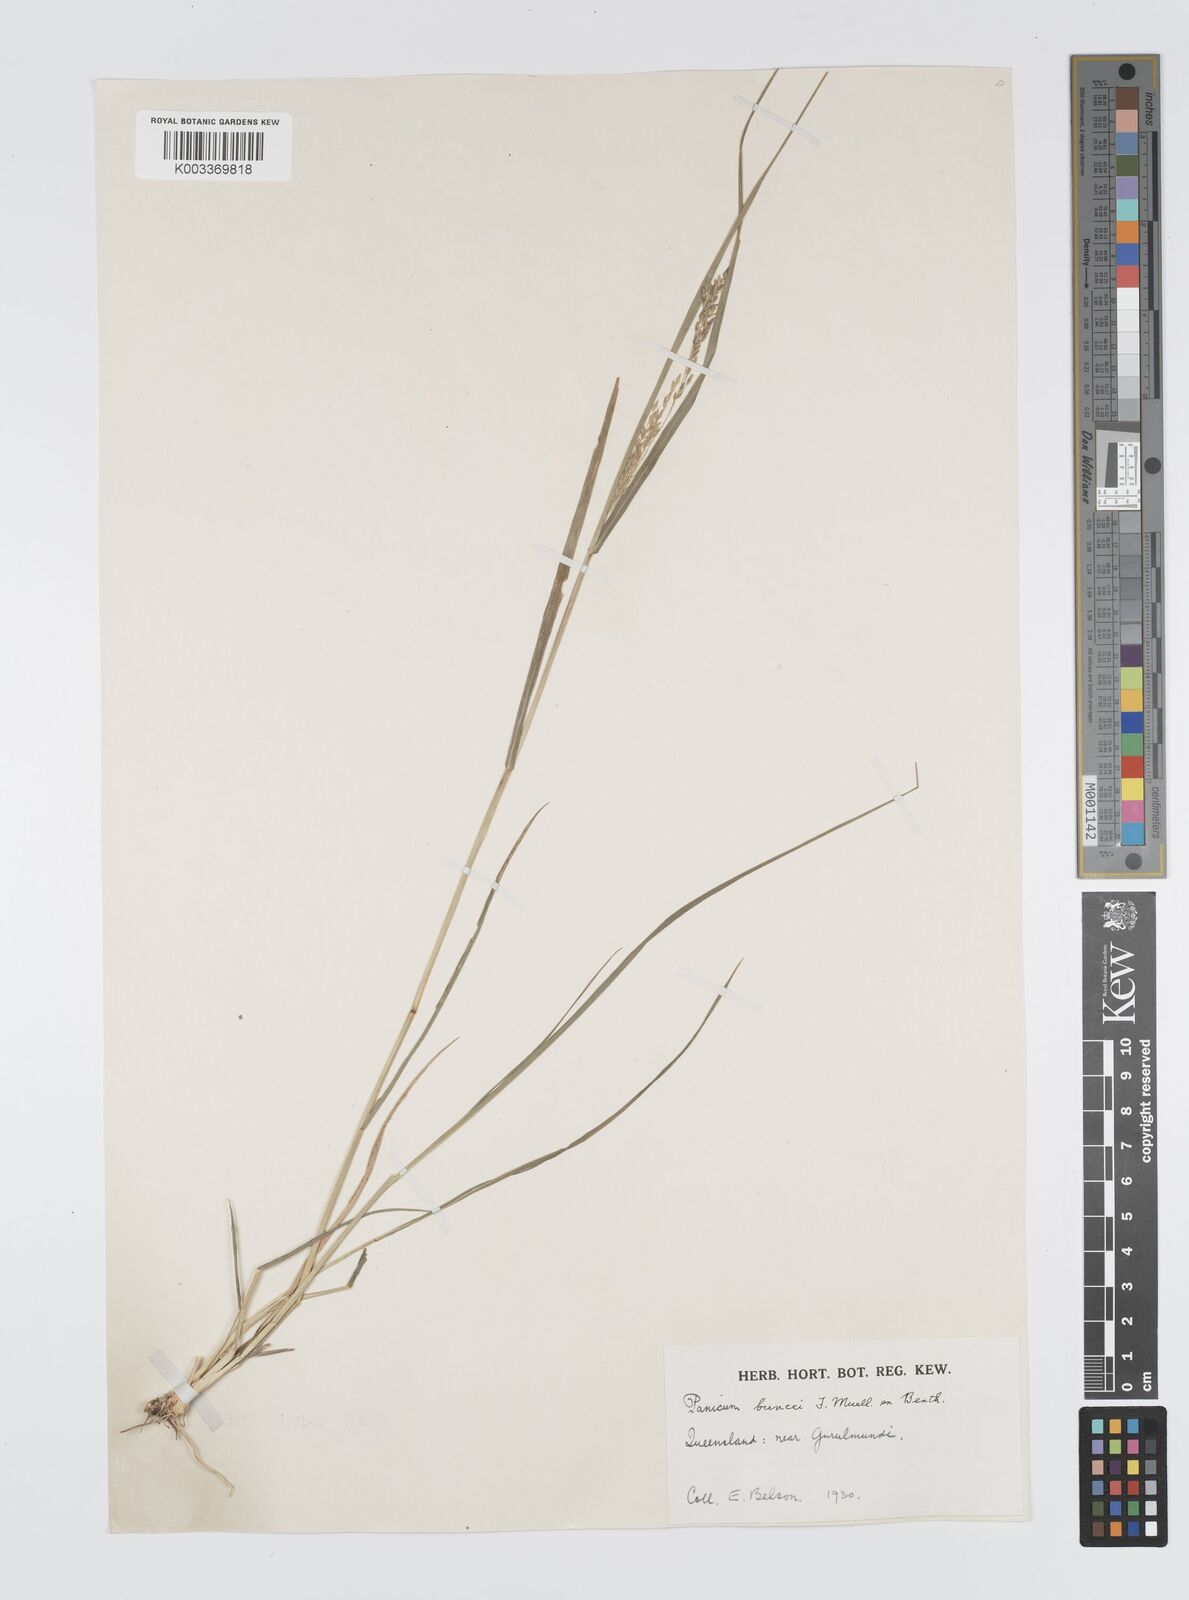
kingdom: Plantae
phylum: Tracheophyta
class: Liliopsida
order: Poales
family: Poaceae
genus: Panicum
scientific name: Panicum buncei
